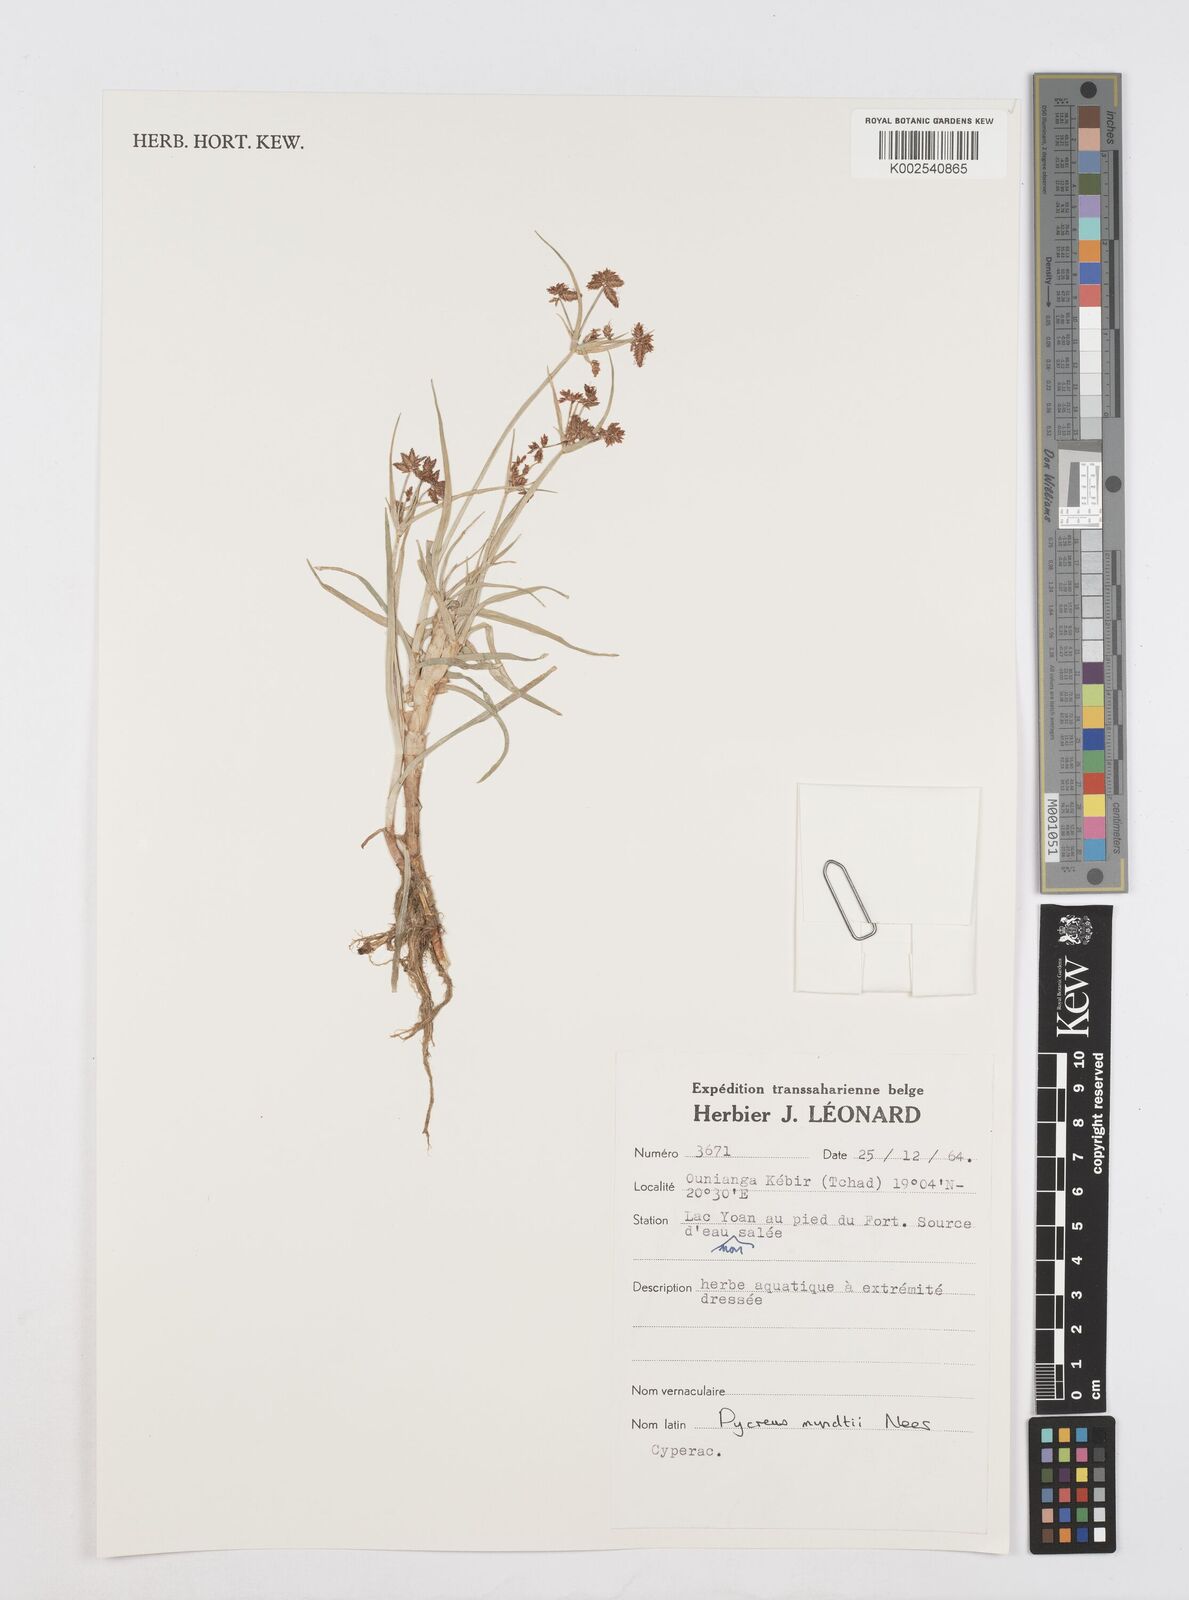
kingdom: Plantae
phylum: Tracheophyta
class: Liliopsida
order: Poales
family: Cyperaceae
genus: Cyperus
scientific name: Cyperus mundii
